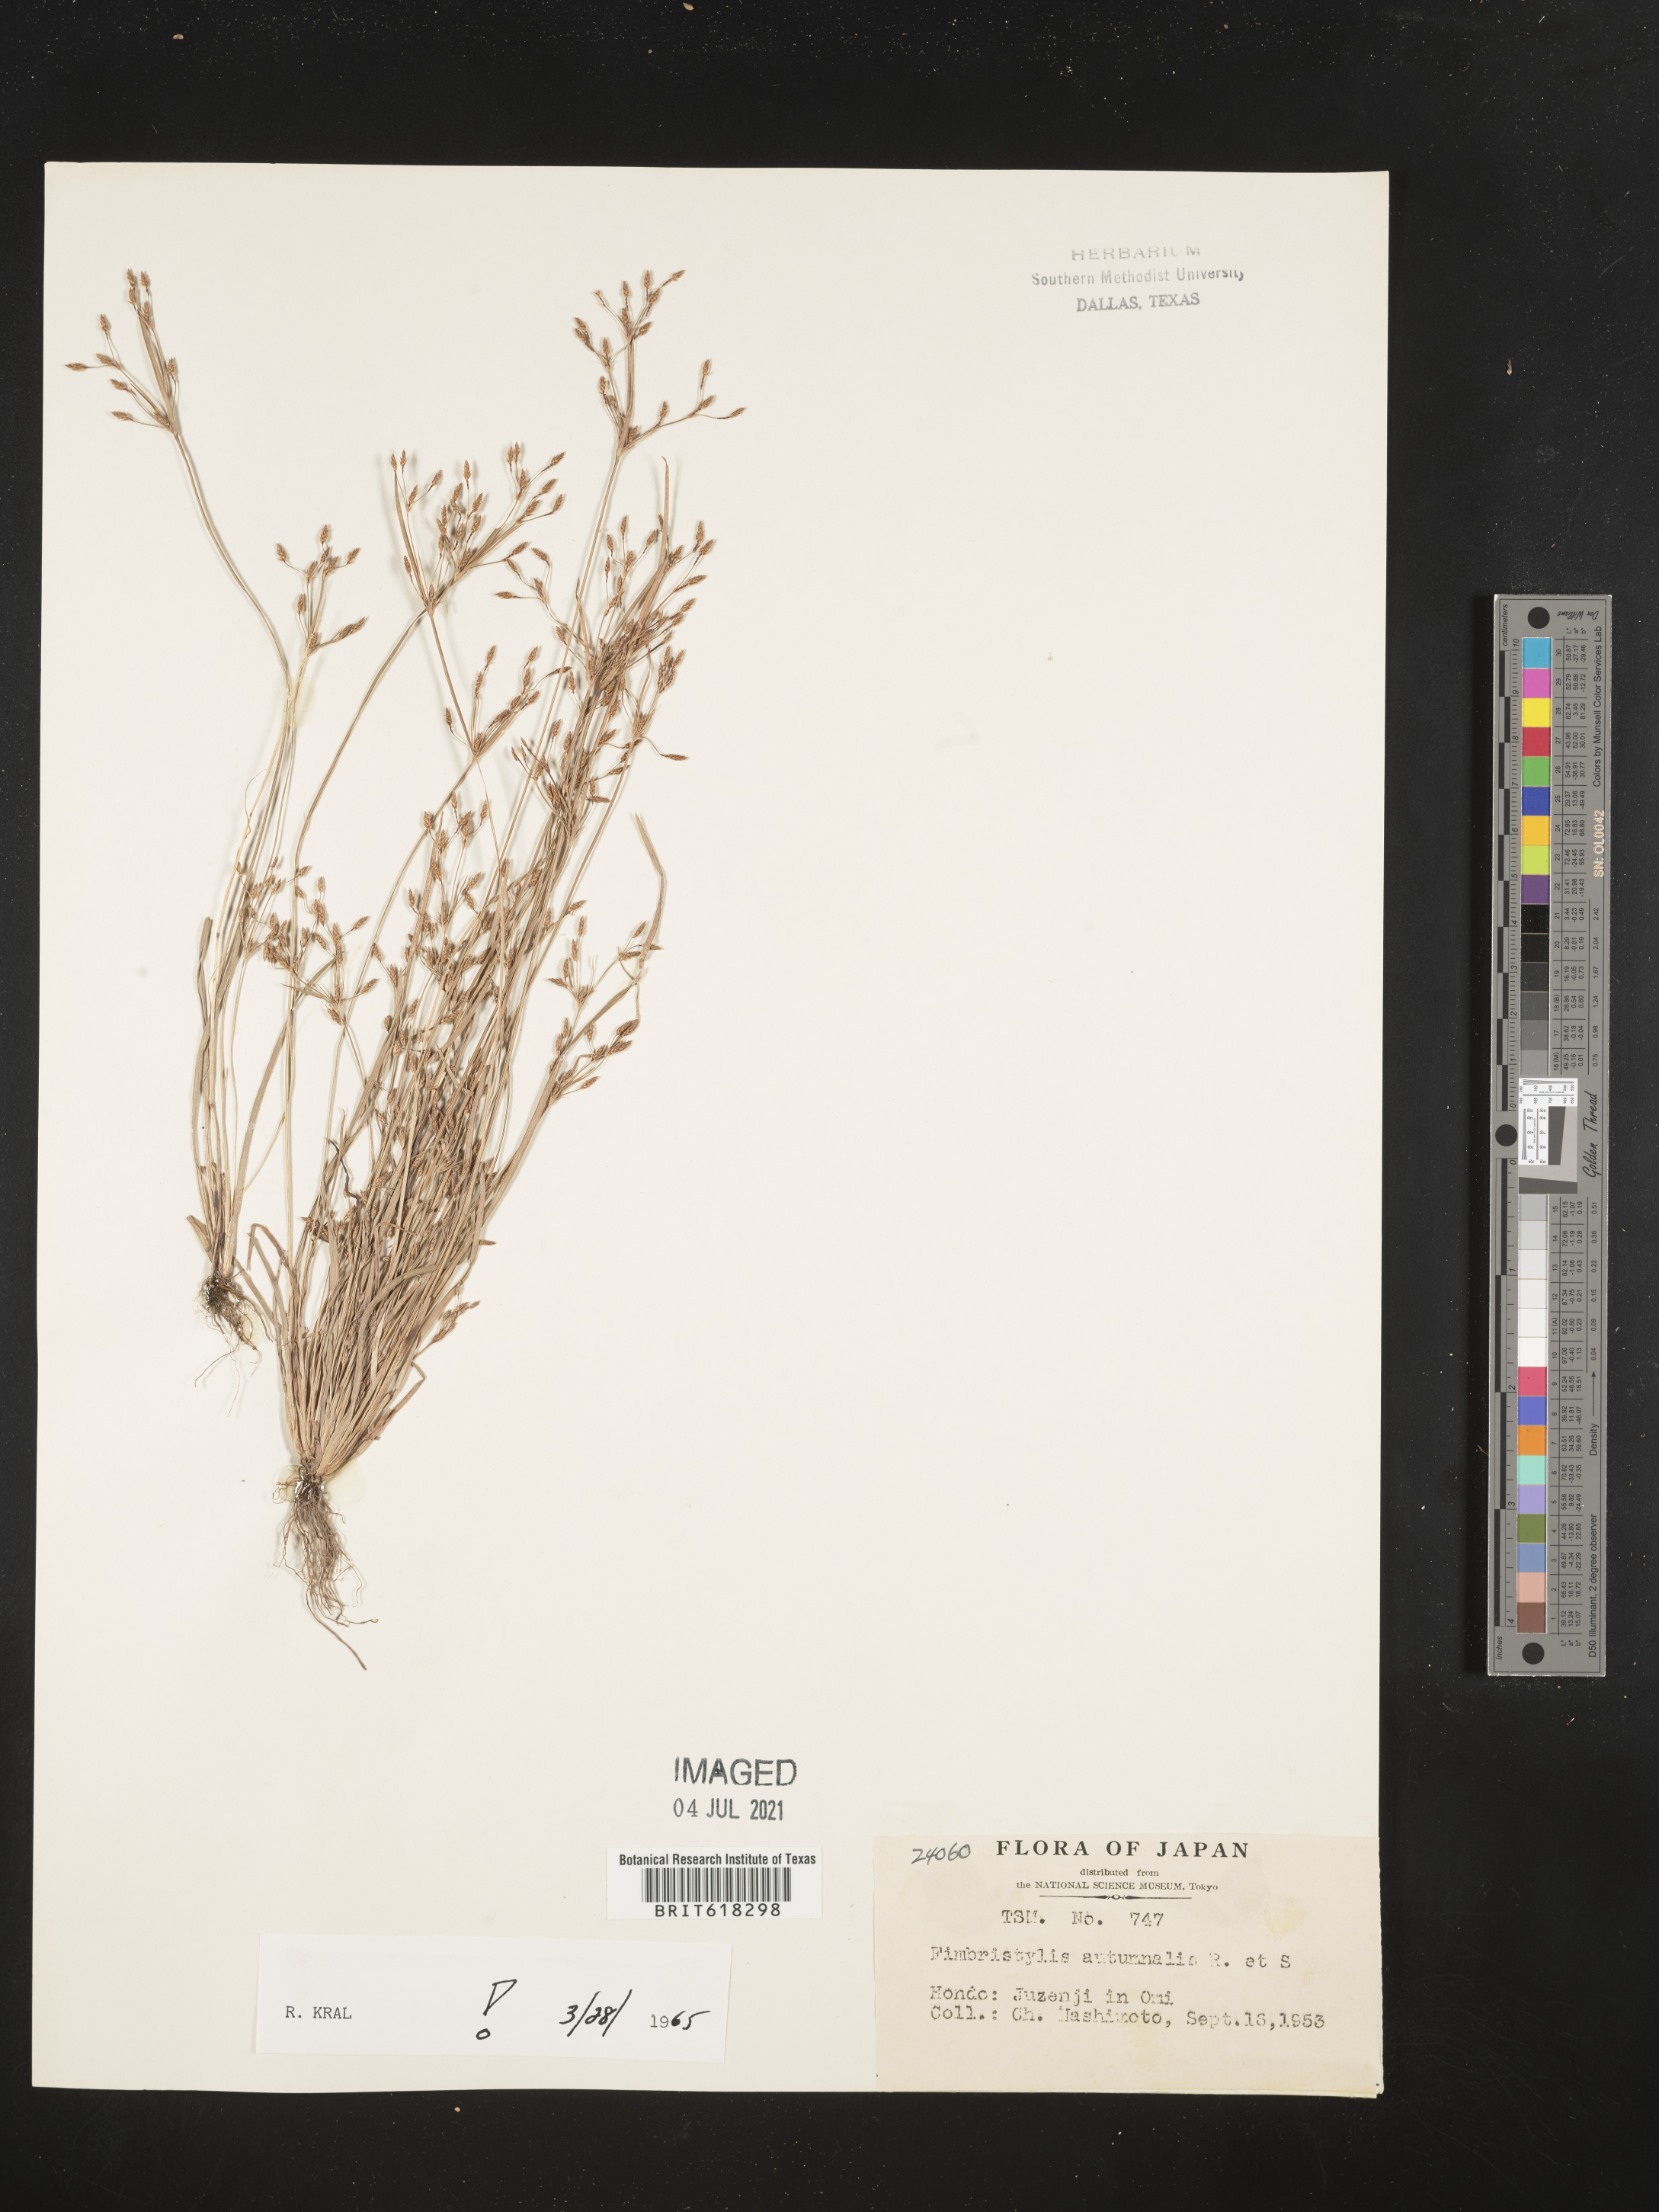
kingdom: Plantae
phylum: Tracheophyta
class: Liliopsida
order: Poales
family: Cyperaceae
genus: Fimbristylis
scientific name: Fimbristylis autumnalis
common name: Slender fimbristylis
